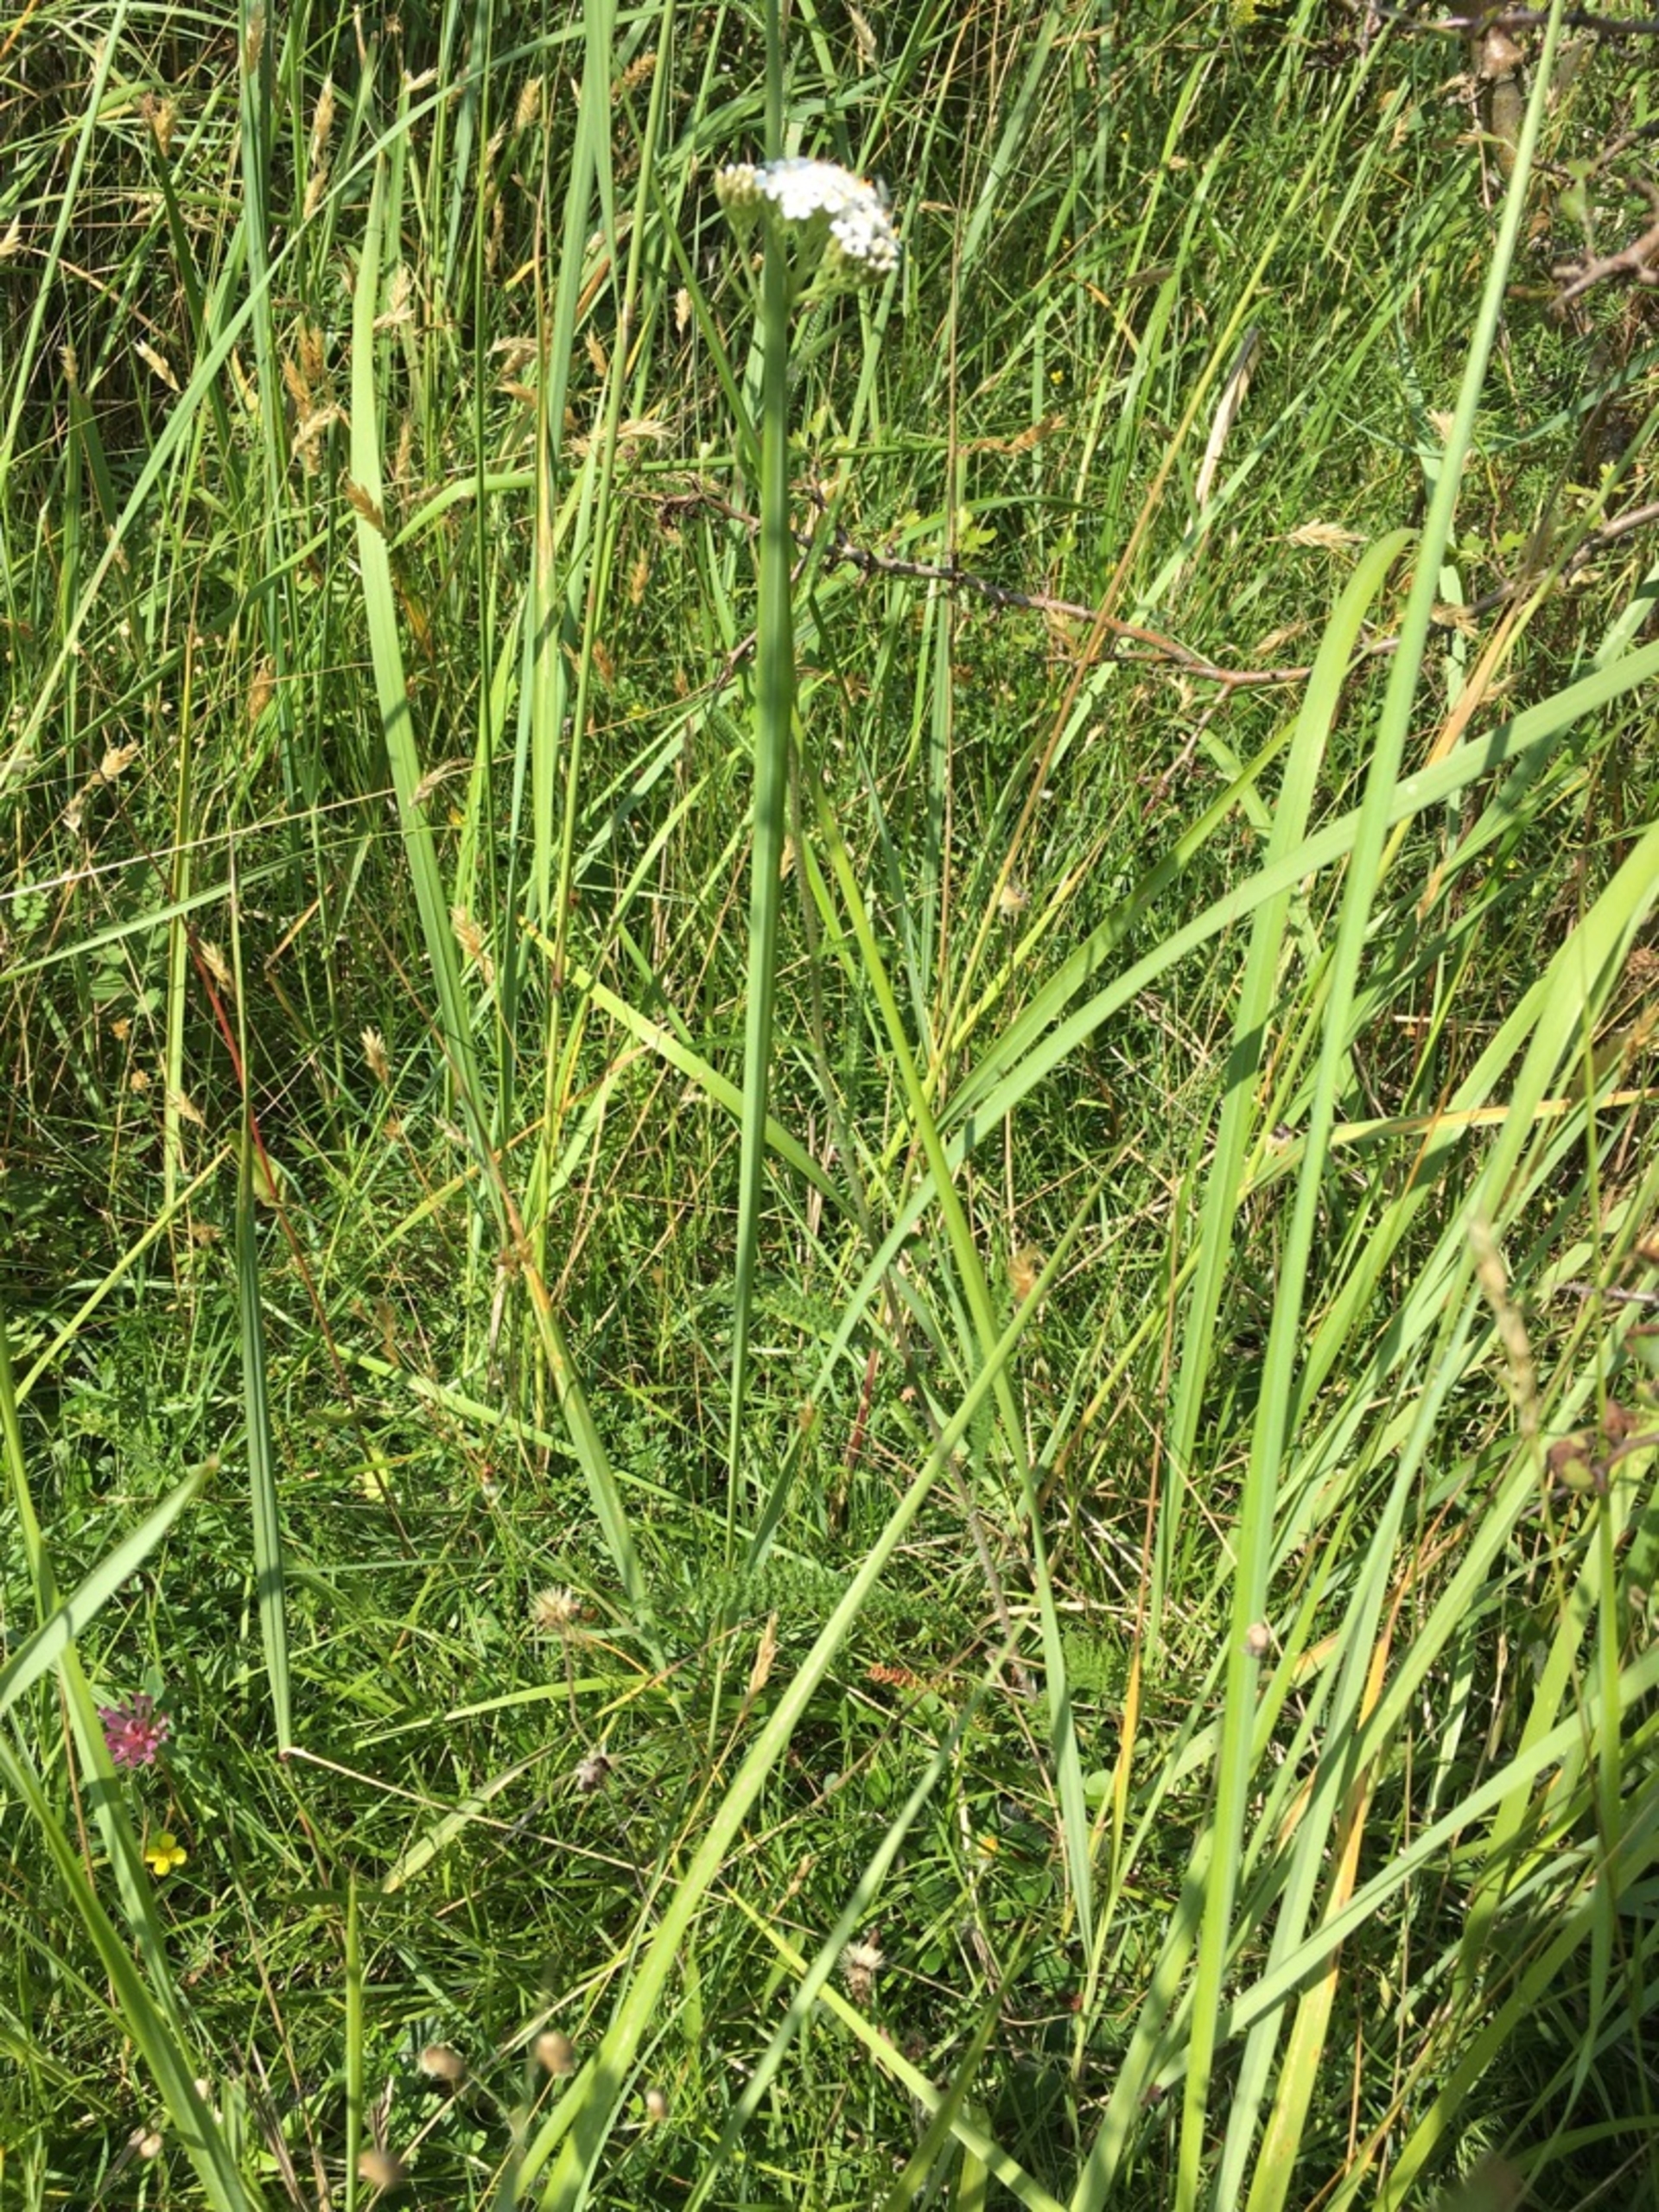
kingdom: Plantae
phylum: Tracheophyta
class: Magnoliopsida
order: Asterales
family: Asteraceae
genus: Achillea
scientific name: Achillea millefolium
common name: Almindelig røllike
